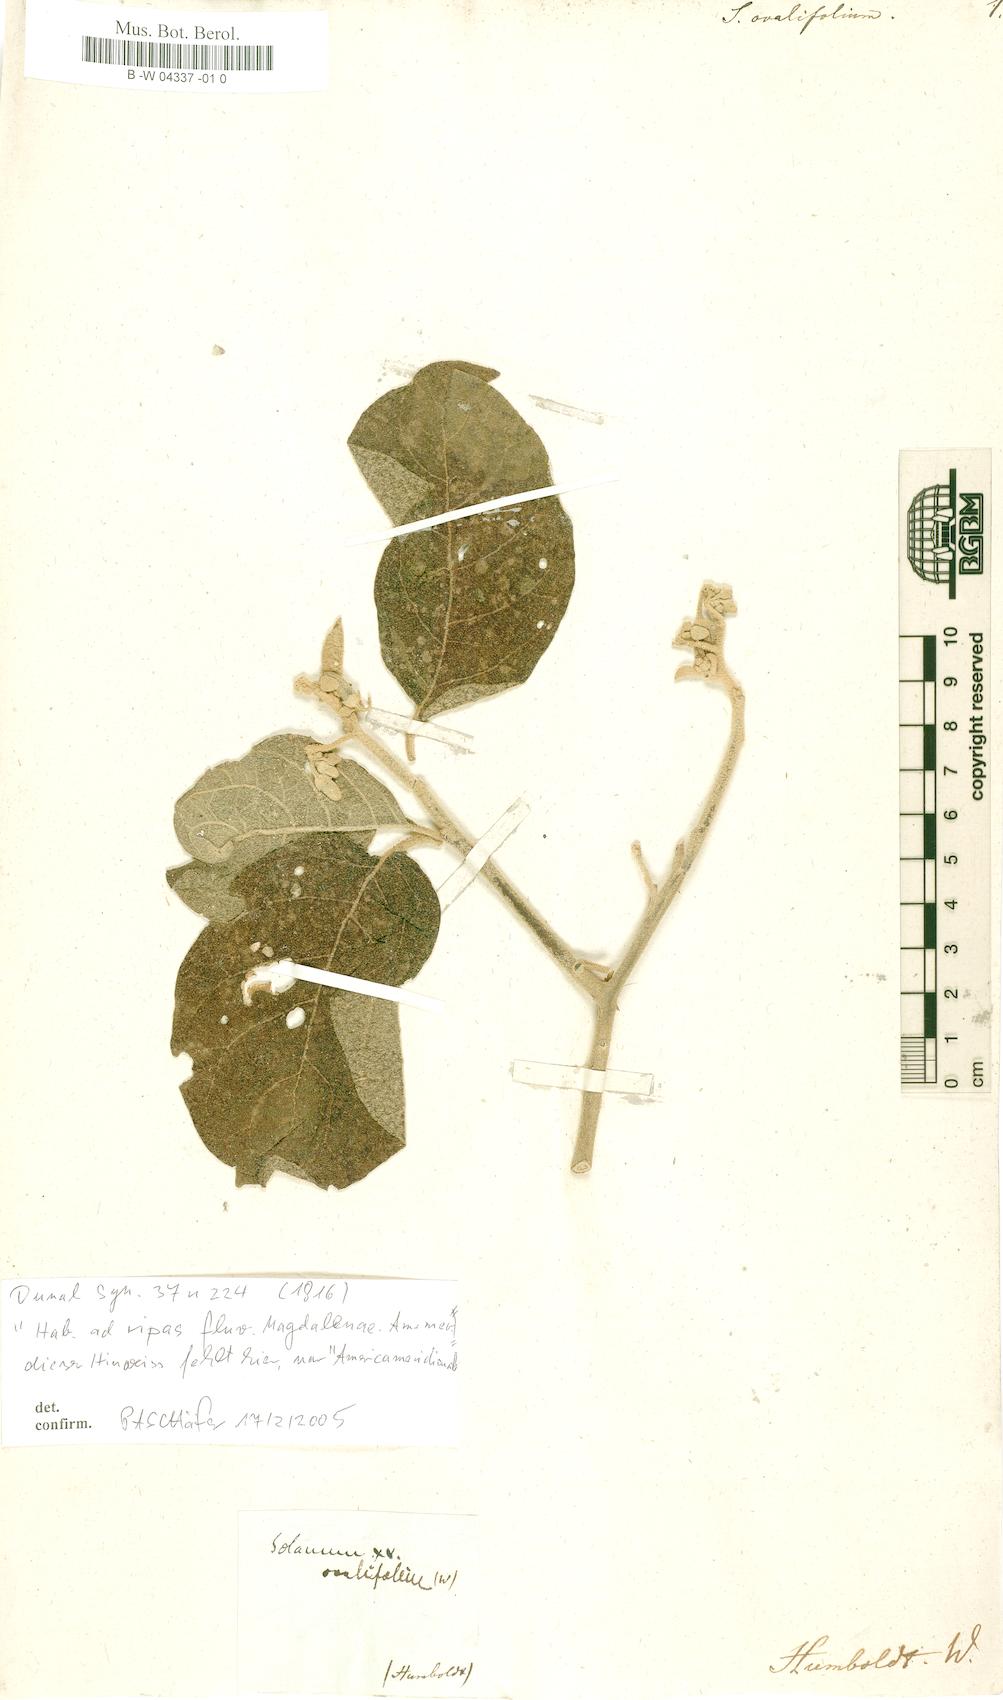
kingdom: Plantae
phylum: Tracheophyta
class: Magnoliopsida
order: Solanales
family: Solanaceae
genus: Solanum
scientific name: Solanum ovalifolium
